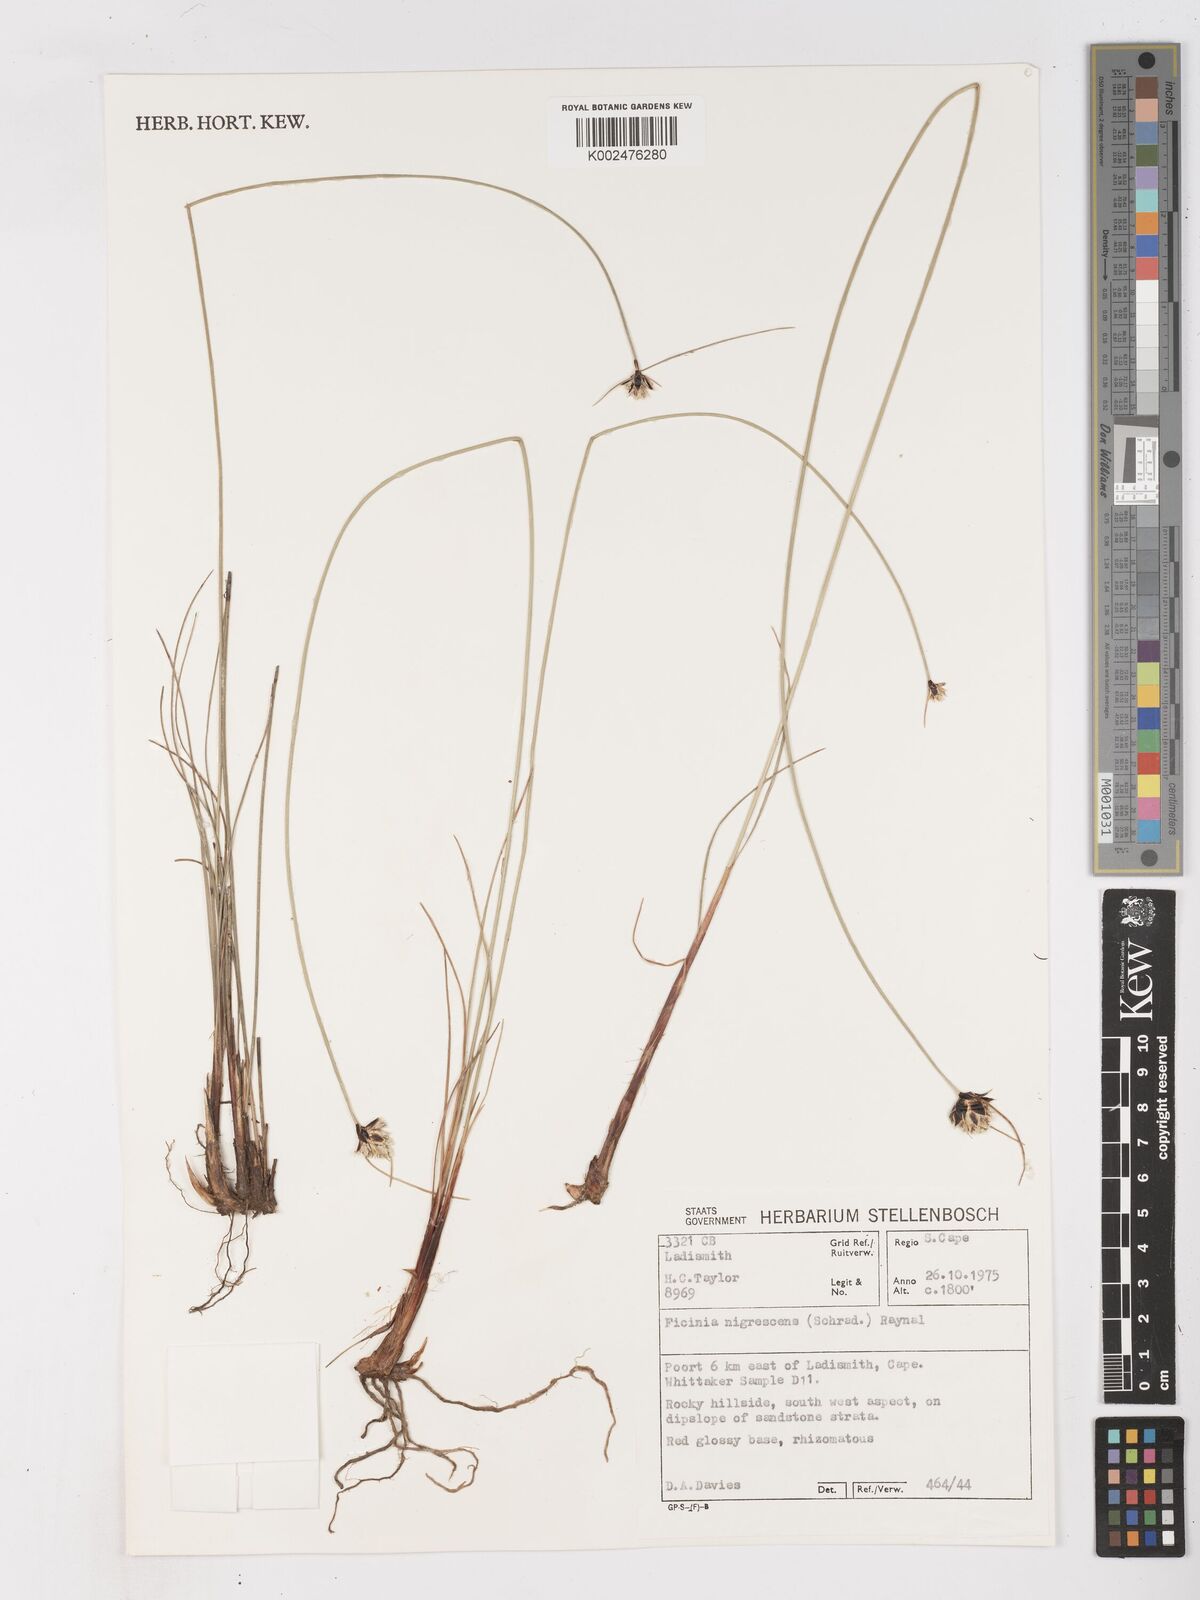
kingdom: Plantae
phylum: Tracheophyta
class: Liliopsida
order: Poales
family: Cyperaceae
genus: Ficinia
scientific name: Ficinia nigrescens
